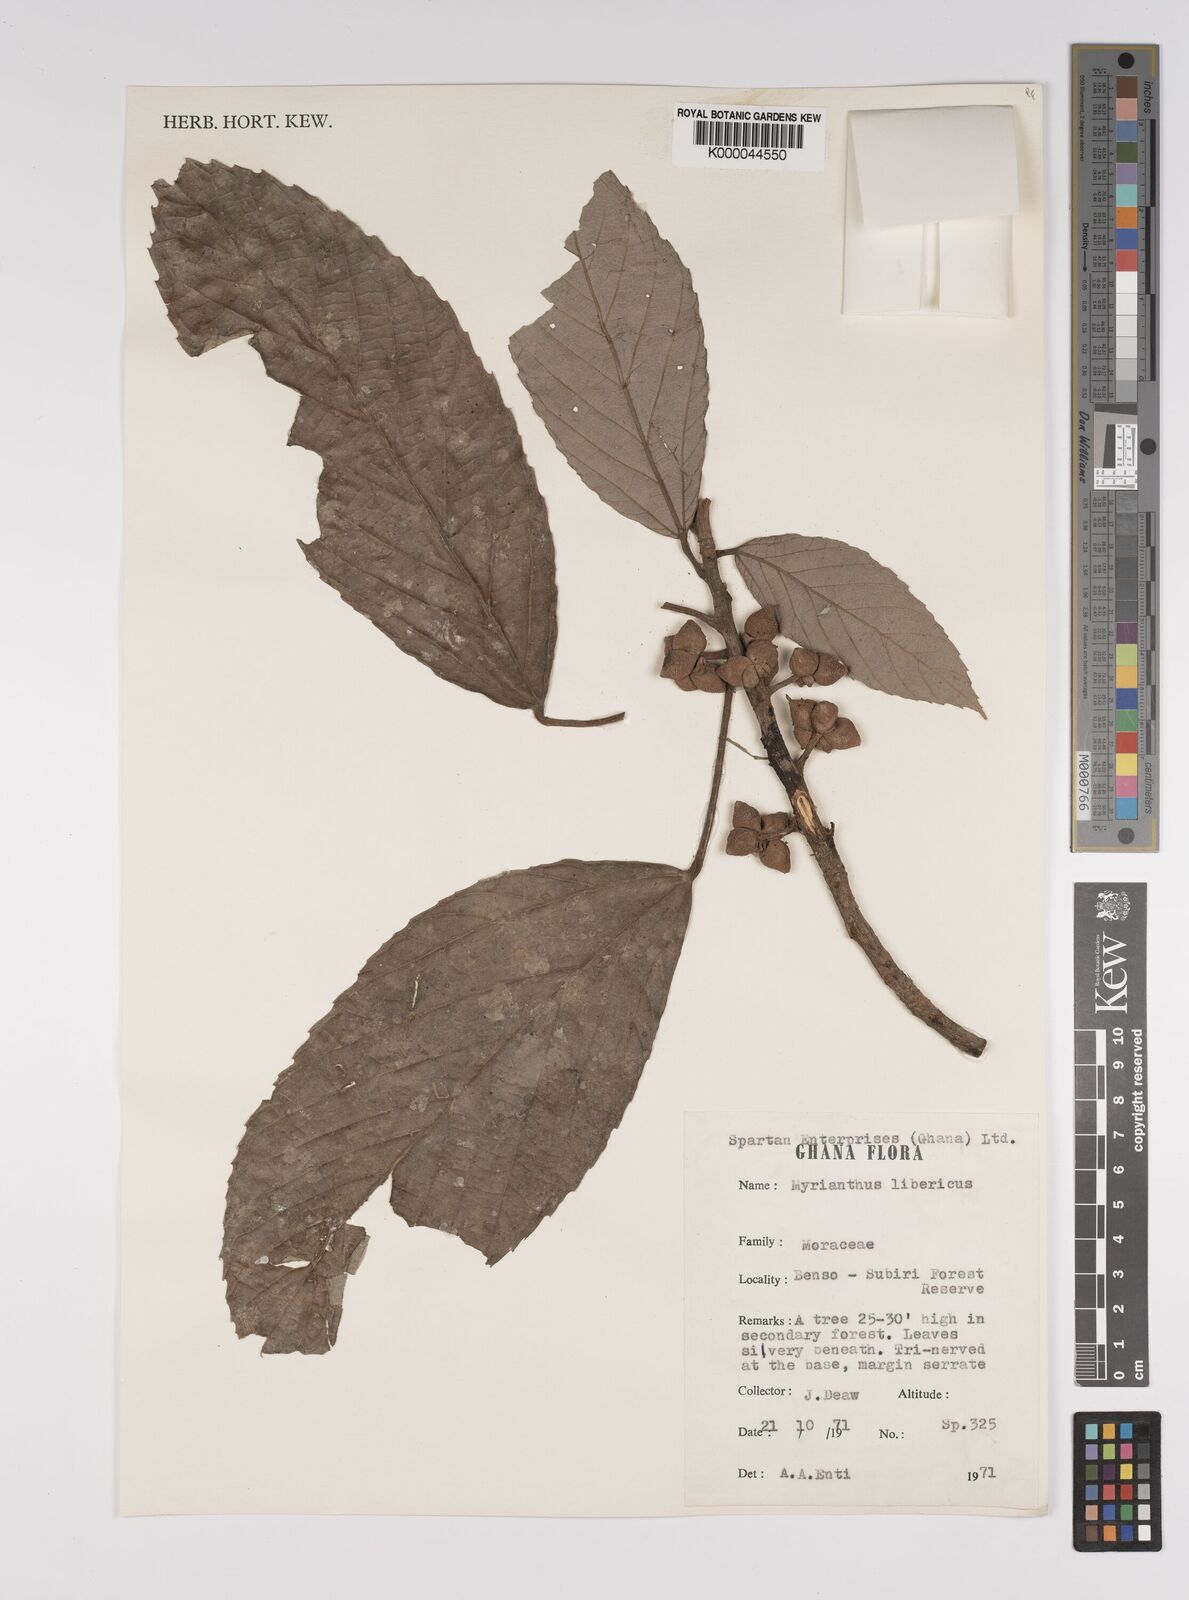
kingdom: Plantae
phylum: Tracheophyta
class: Magnoliopsida
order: Rosales
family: Urticaceae
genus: Myrianthus
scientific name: Myrianthus libericus
